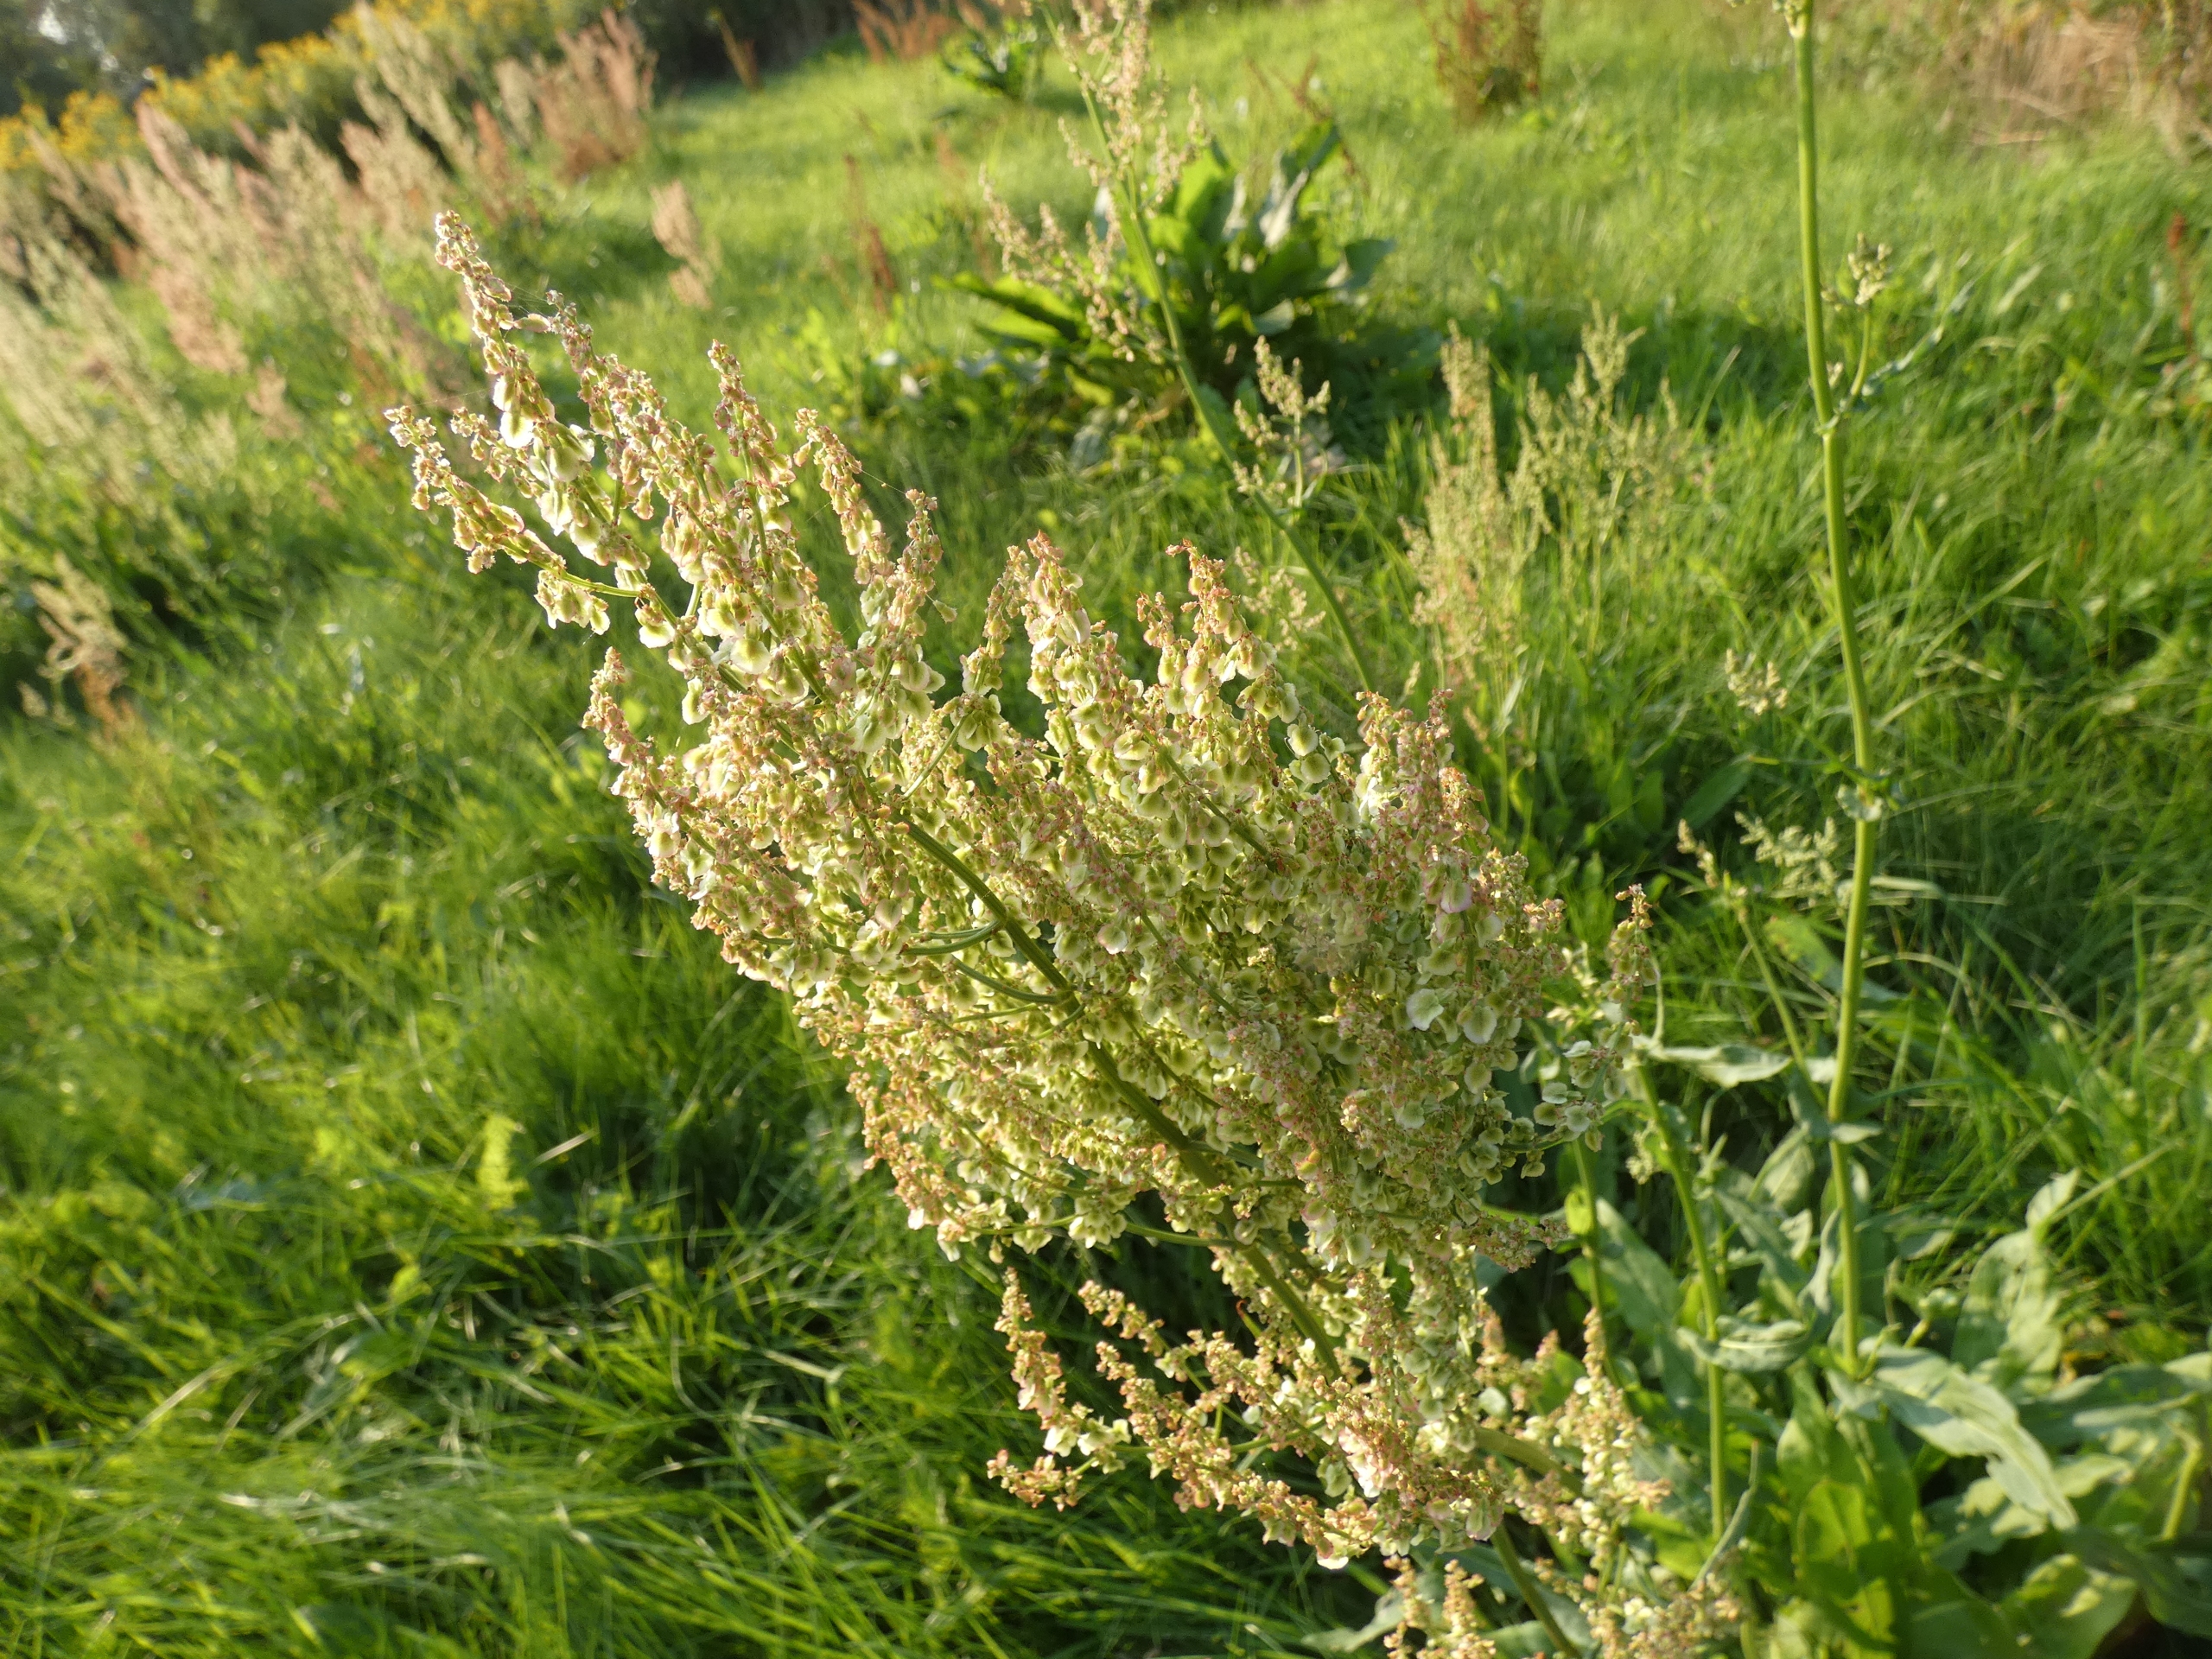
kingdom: Plantae
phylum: Tracheophyta
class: Magnoliopsida
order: Caryophyllales
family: Polygonaceae
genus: Rumex
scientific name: Rumex thyrsiflorus
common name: Dusk-syre
